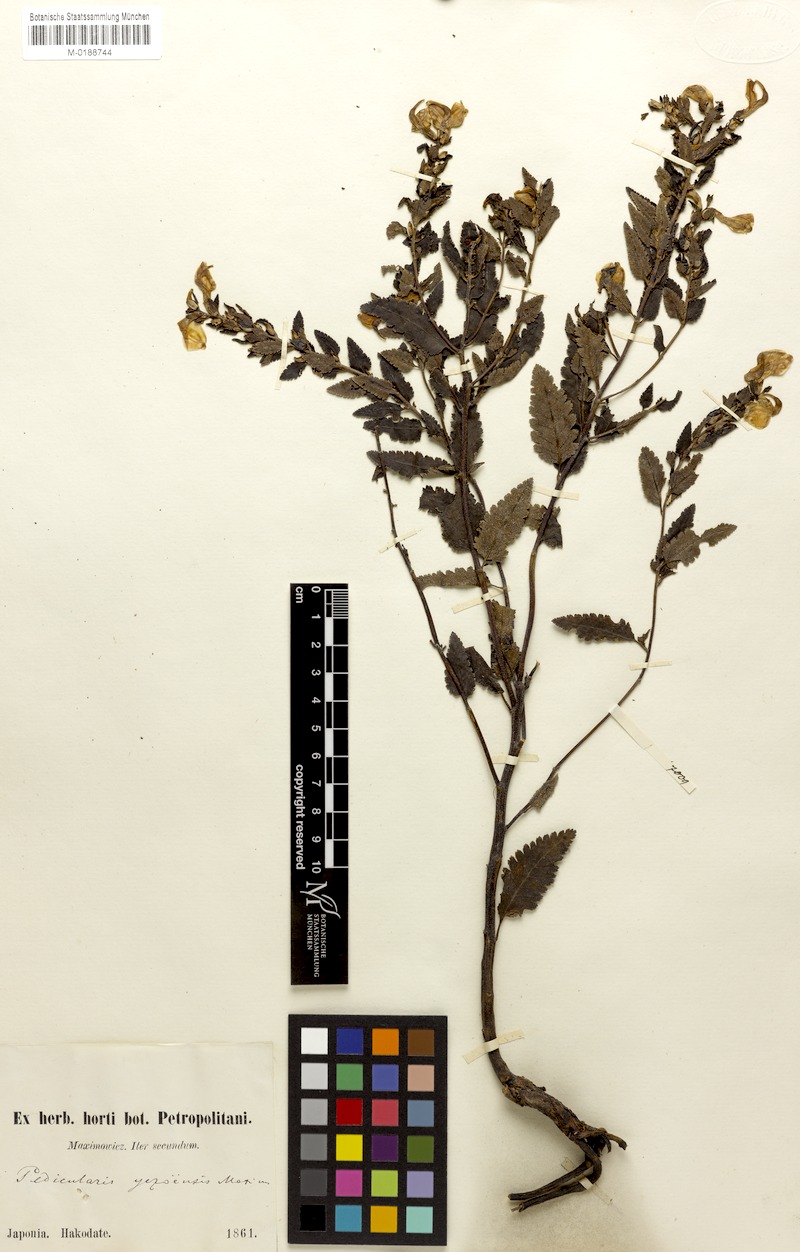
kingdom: Plantae
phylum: Tracheophyta
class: Magnoliopsida
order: Lamiales
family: Orobanchaceae
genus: Pedicularis
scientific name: Pedicularis yezoensis
